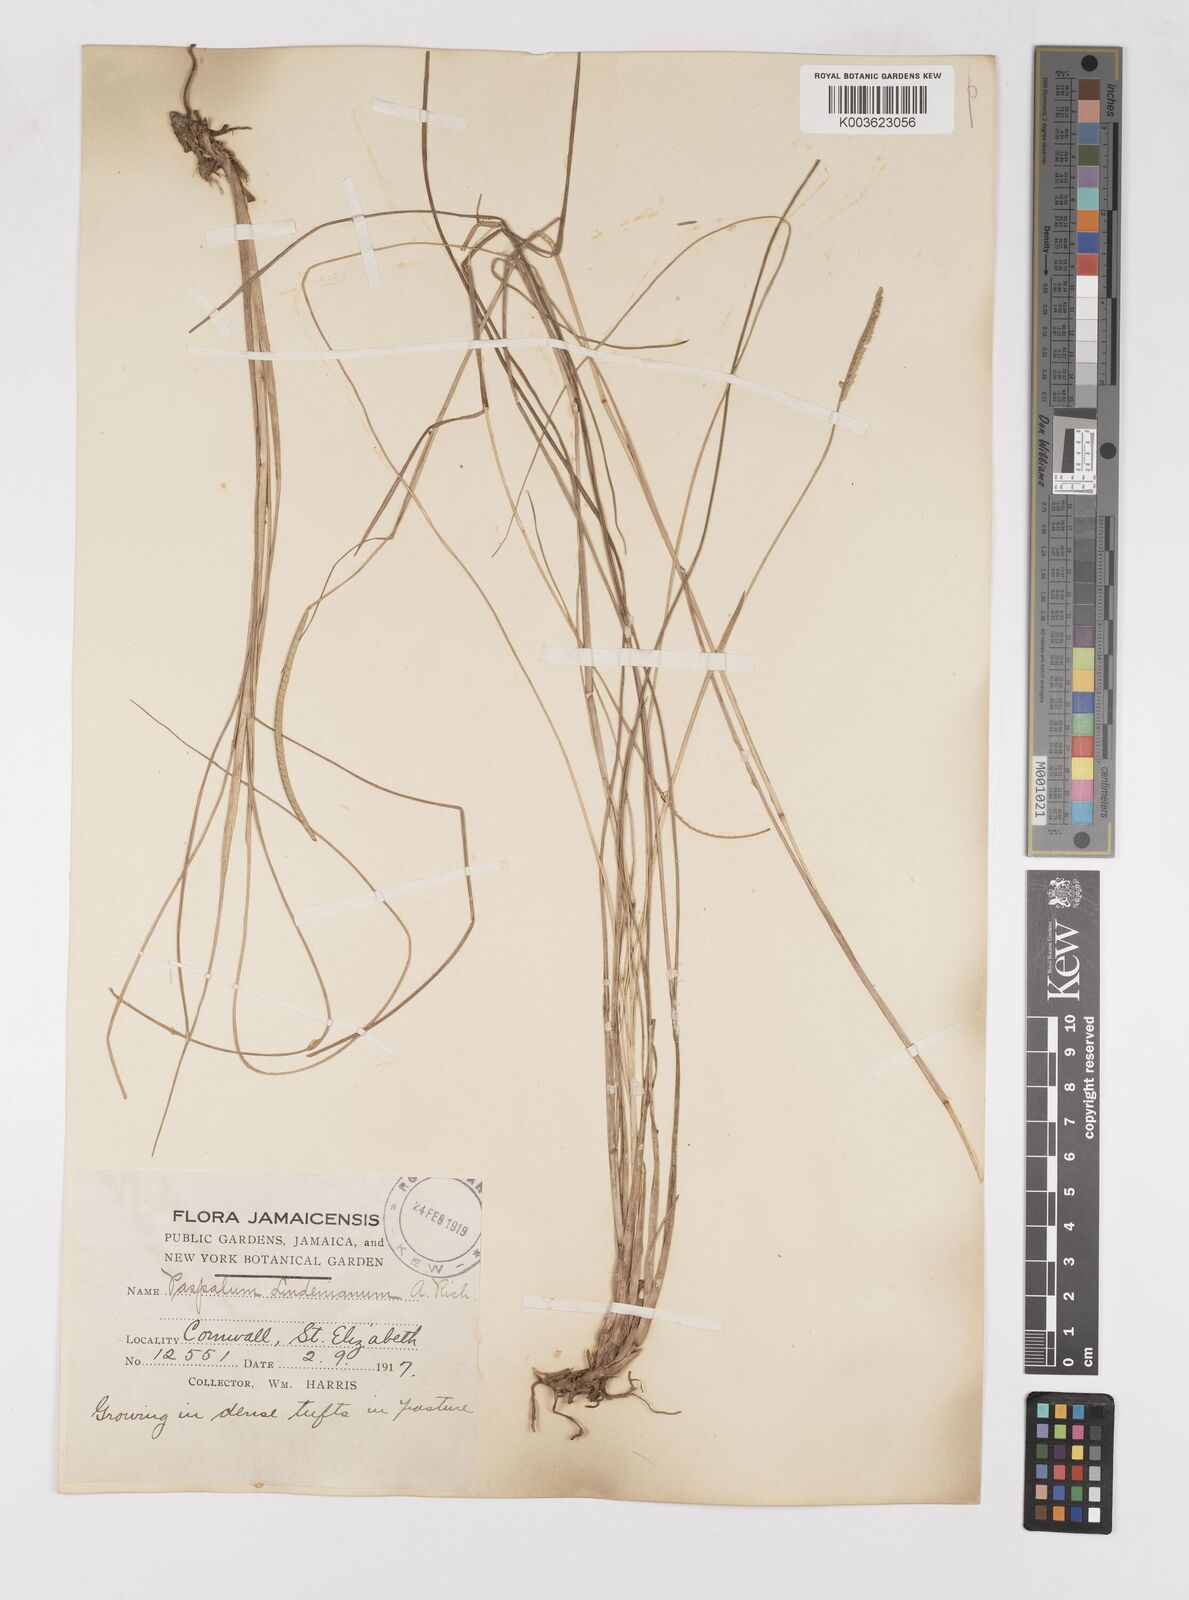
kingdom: Plantae
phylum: Tracheophyta
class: Liliopsida
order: Poales
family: Poaceae
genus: Paspalum
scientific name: Paspalum lindenianum
